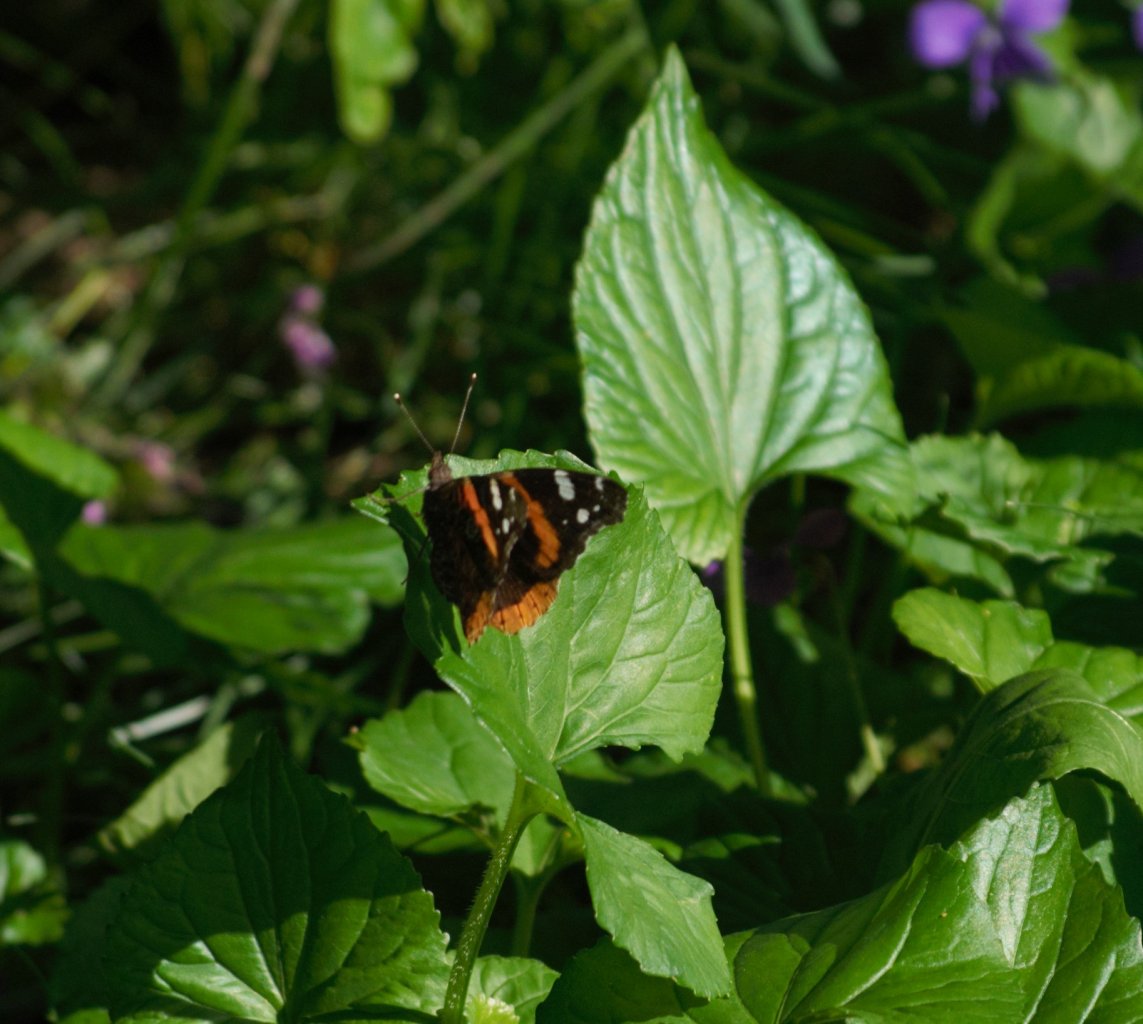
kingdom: Animalia
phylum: Arthropoda
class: Insecta
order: Lepidoptera
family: Nymphalidae
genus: Vanessa
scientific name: Vanessa atalanta
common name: Red Admiral
